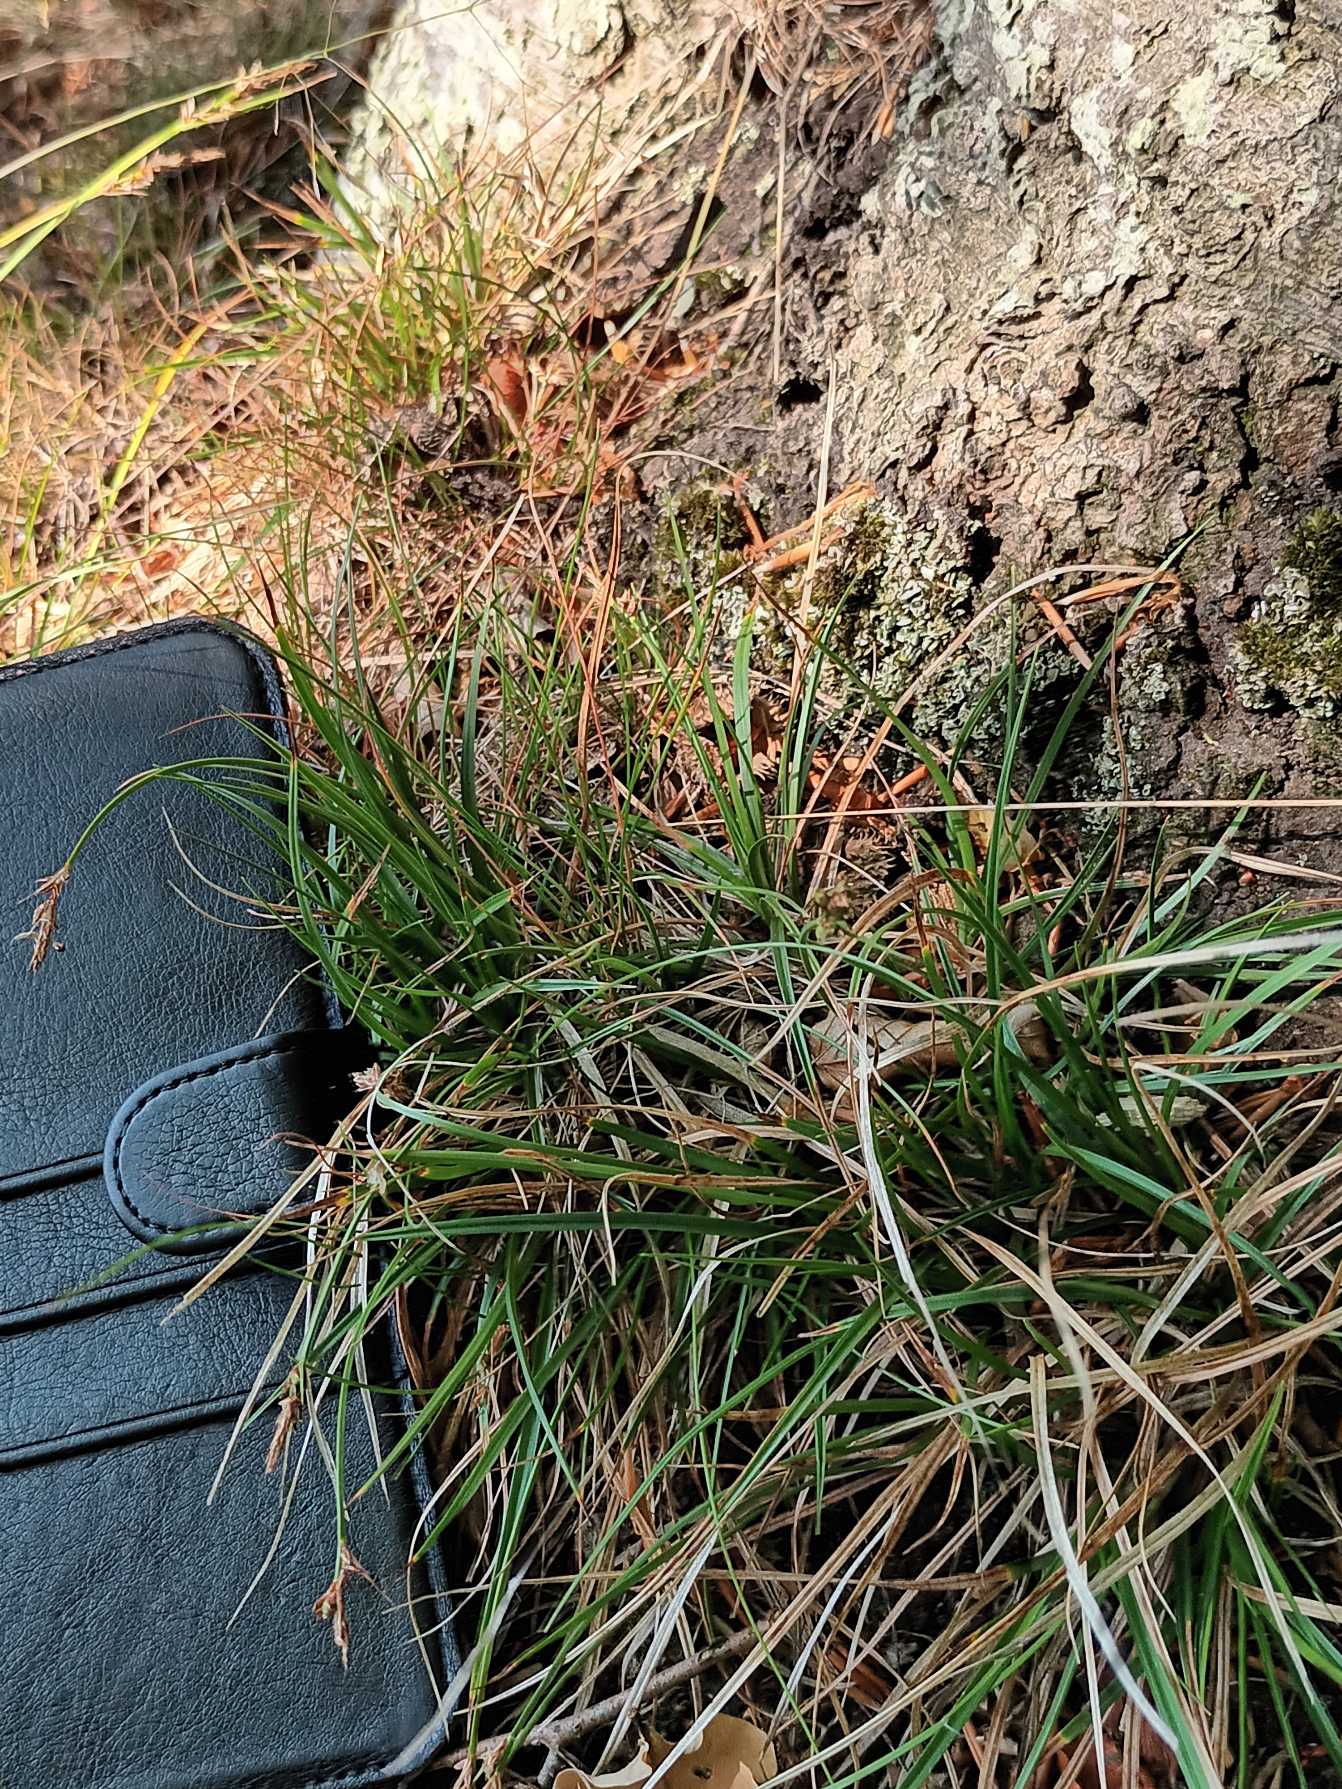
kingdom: Plantae
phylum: Tracheophyta
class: Liliopsida
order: Poales
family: Cyperaceae
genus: Carex
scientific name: Carex pilulifera
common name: Pille-star
